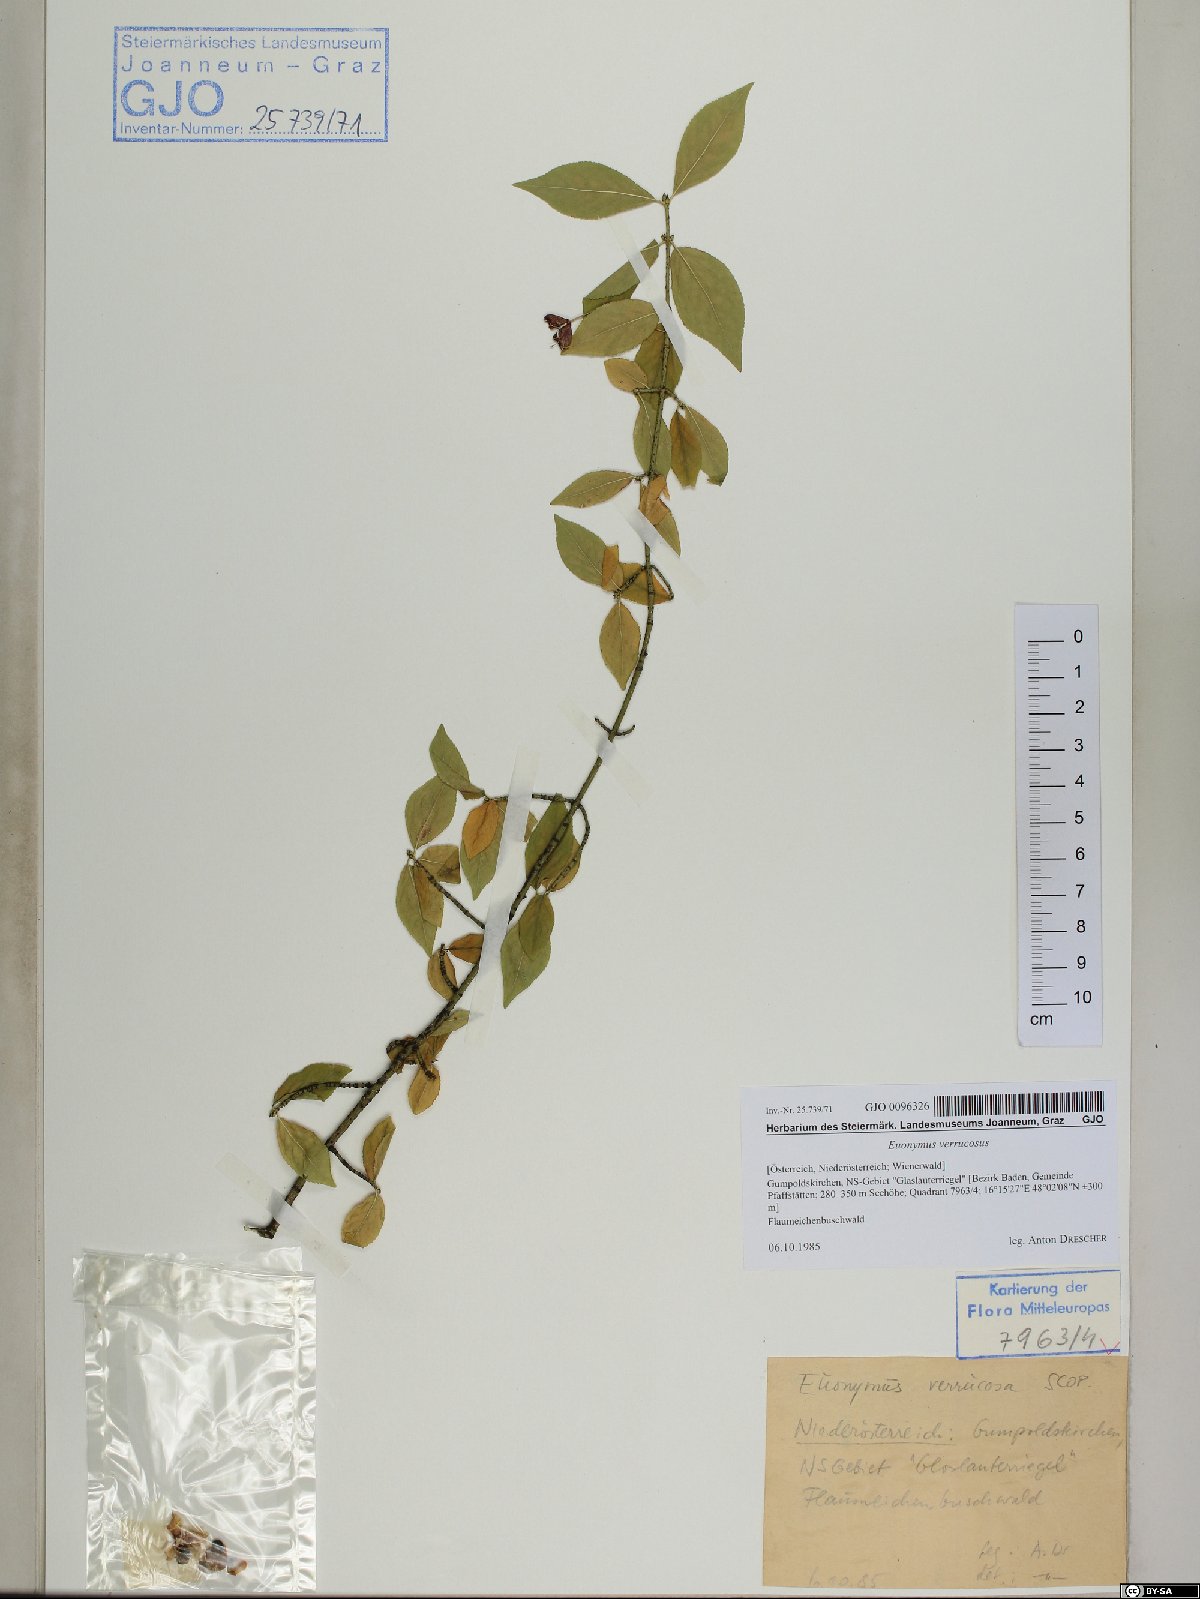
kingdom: Plantae
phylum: Tracheophyta
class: Magnoliopsida
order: Celastrales
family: Celastraceae
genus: Euonymus
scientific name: Euonymus verrucosus
